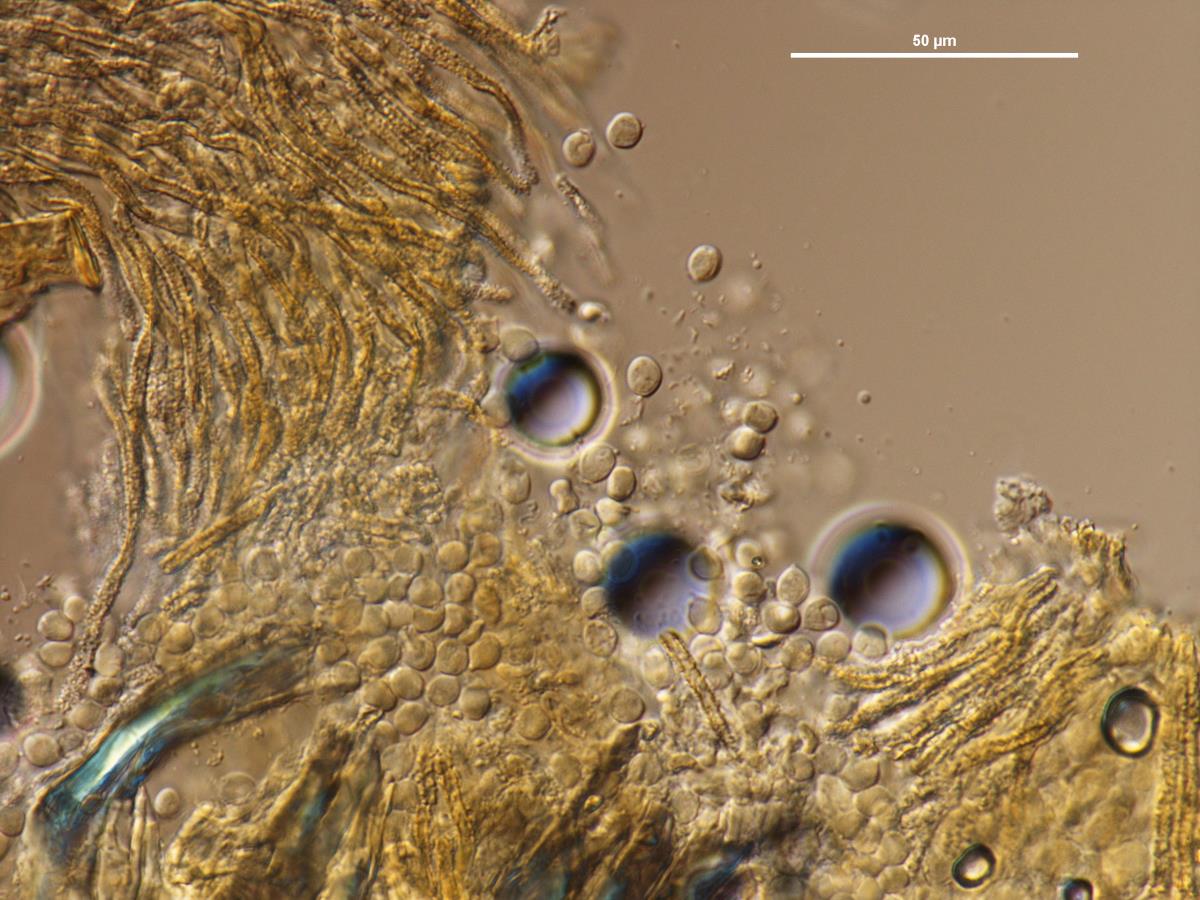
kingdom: Fungi
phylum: Basidiomycota
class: Agaricomycetes
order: Agaricales
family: Marasmiaceae
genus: Rectipilus
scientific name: Rectipilus sulphureus
